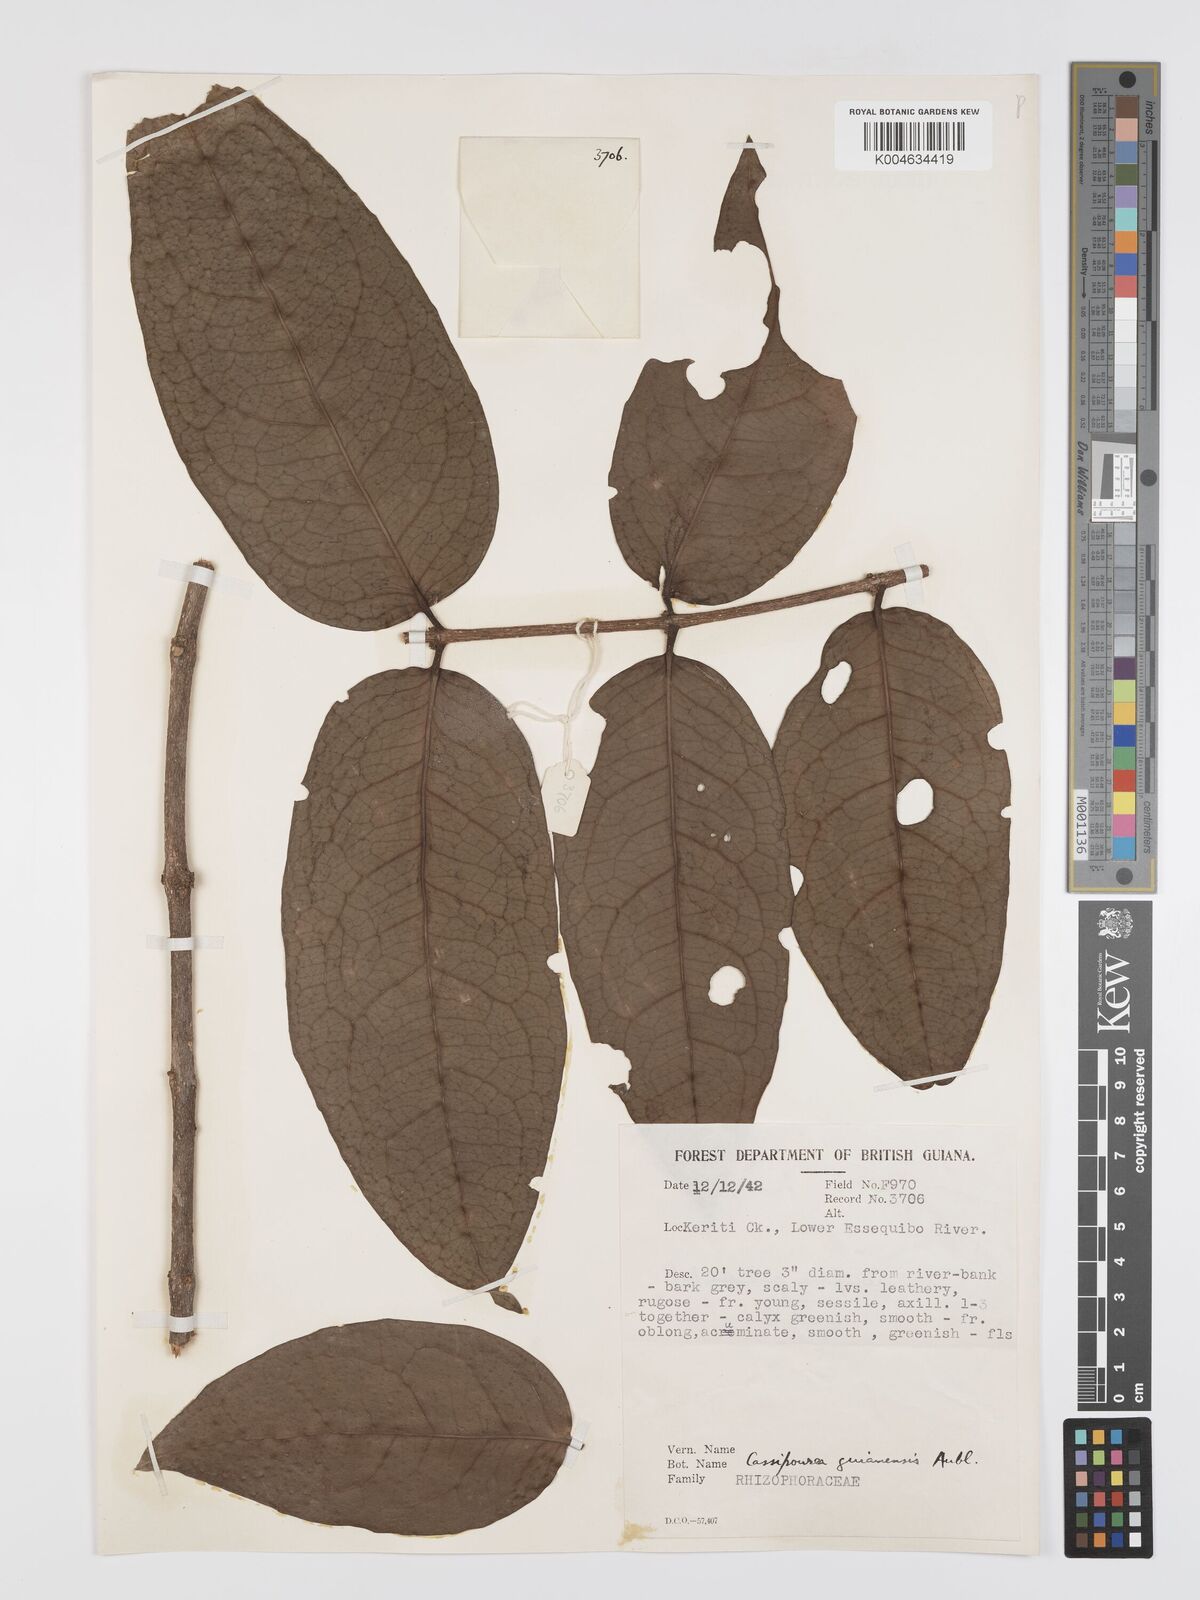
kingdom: Plantae
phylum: Tracheophyta
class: Magnoliopsida
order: Malpighiales
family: Rhizophoraceae
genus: Cassipourea
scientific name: Cassipourea guianensis
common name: Bastard waterwood
